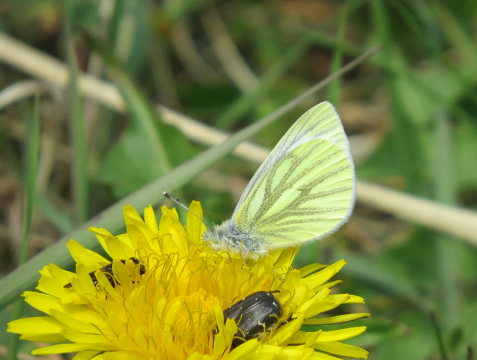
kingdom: Animalia
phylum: Arthropoda
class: Insecta
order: Lepidoptera
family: Pieridae
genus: Pieris
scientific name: Pieris napi
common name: Green-veined White
